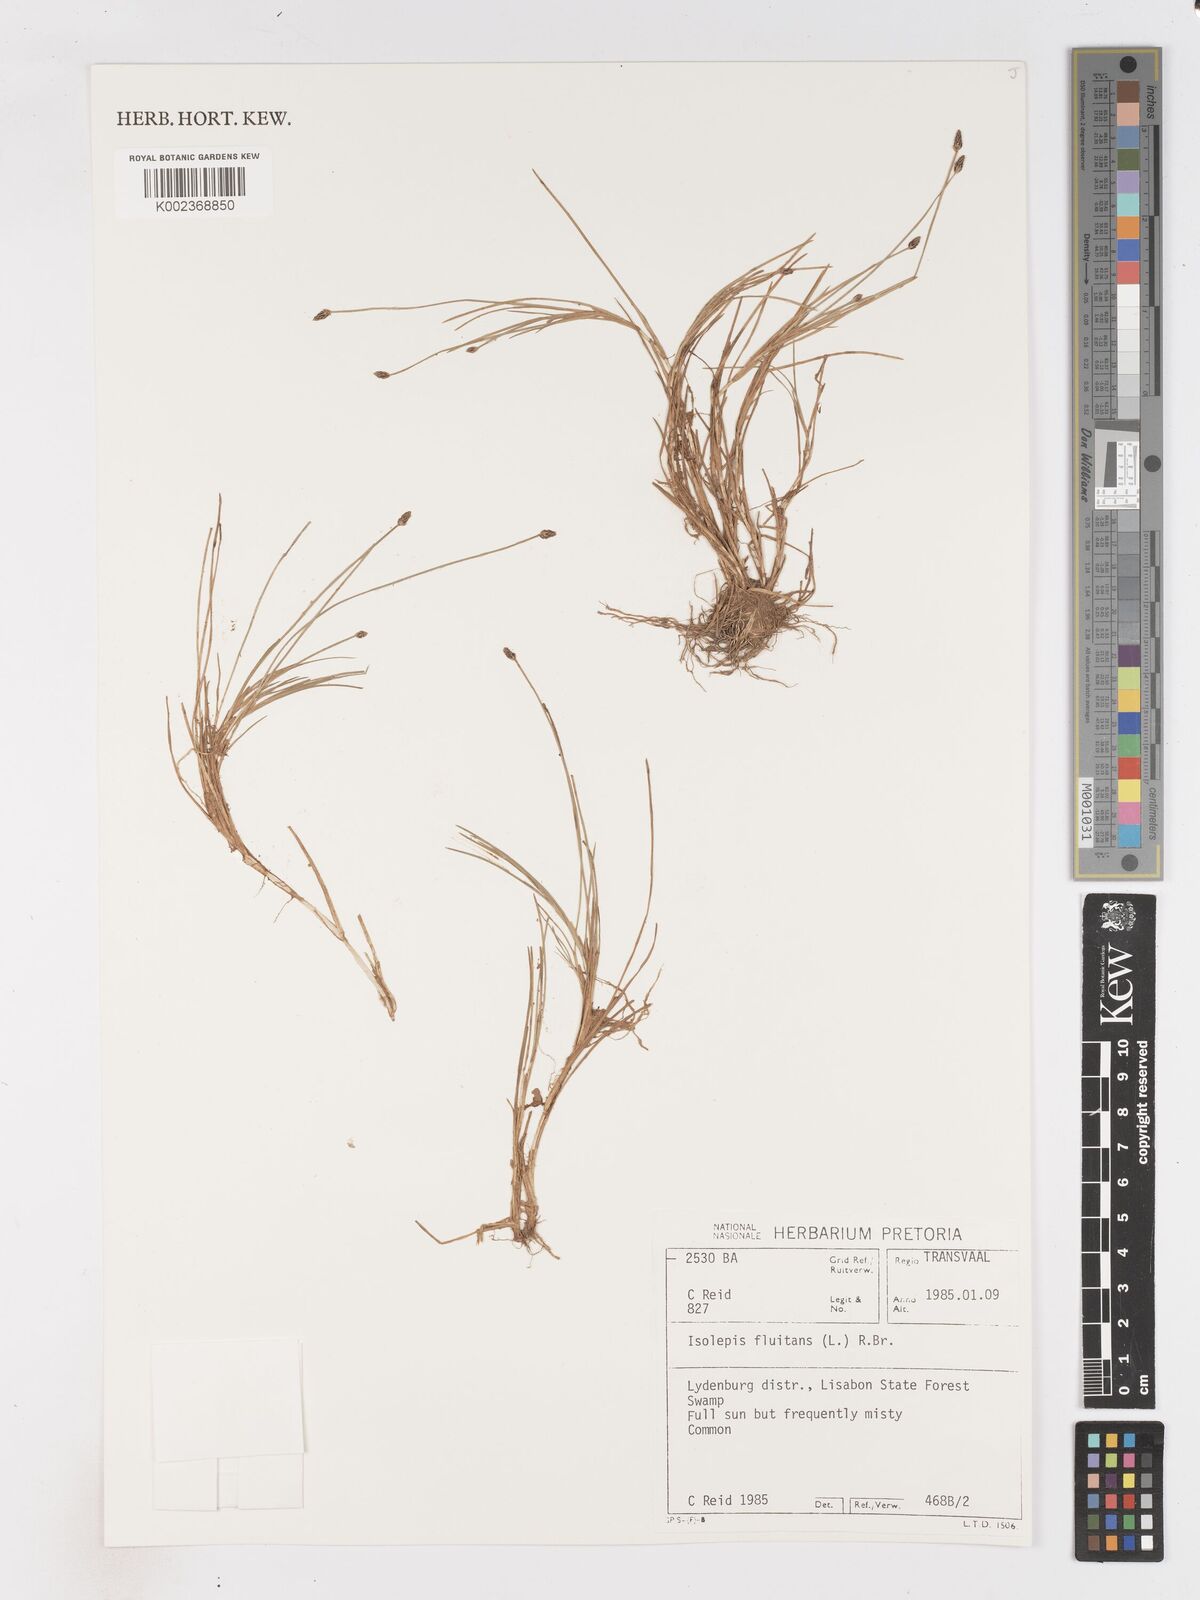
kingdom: Plantae
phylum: Tracheophyta
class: Liliopsida
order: Poales
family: Cyperaceae
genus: Isolepis
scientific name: Isolepis fluitans
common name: Floating club-rush
